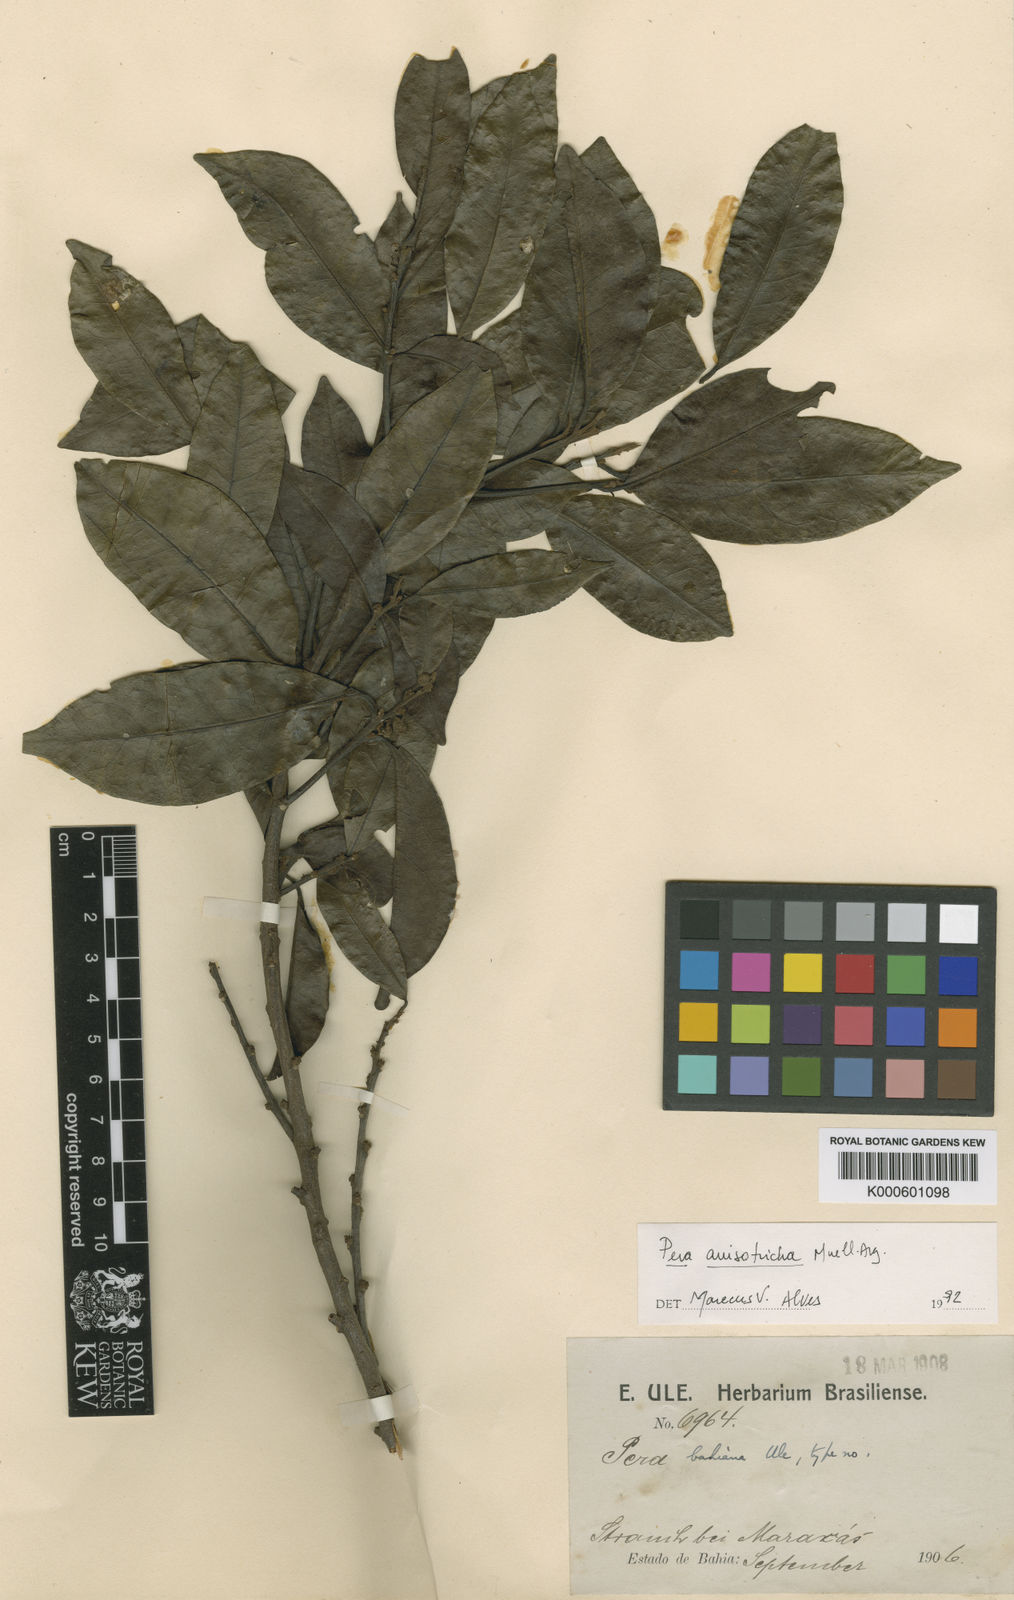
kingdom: Plantae
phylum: Tracheophyta
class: Magnoliopsida
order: Malpighiales
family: Peraceae
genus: Pera
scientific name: Pera
